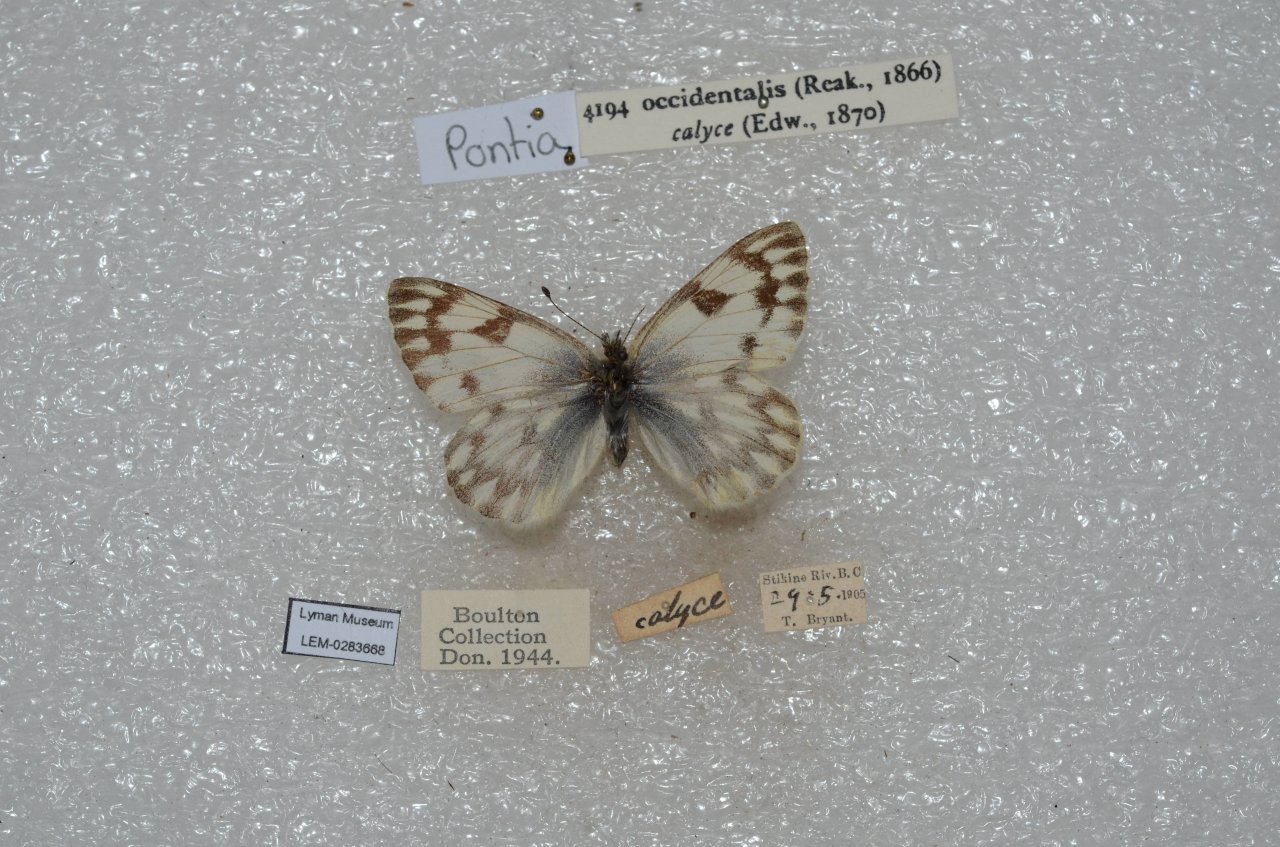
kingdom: Animalia
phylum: Arthropoda
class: Insecta
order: Lepidoptera
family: Pieridae
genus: Pontia
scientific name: Pontia occidentalis
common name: Western White
